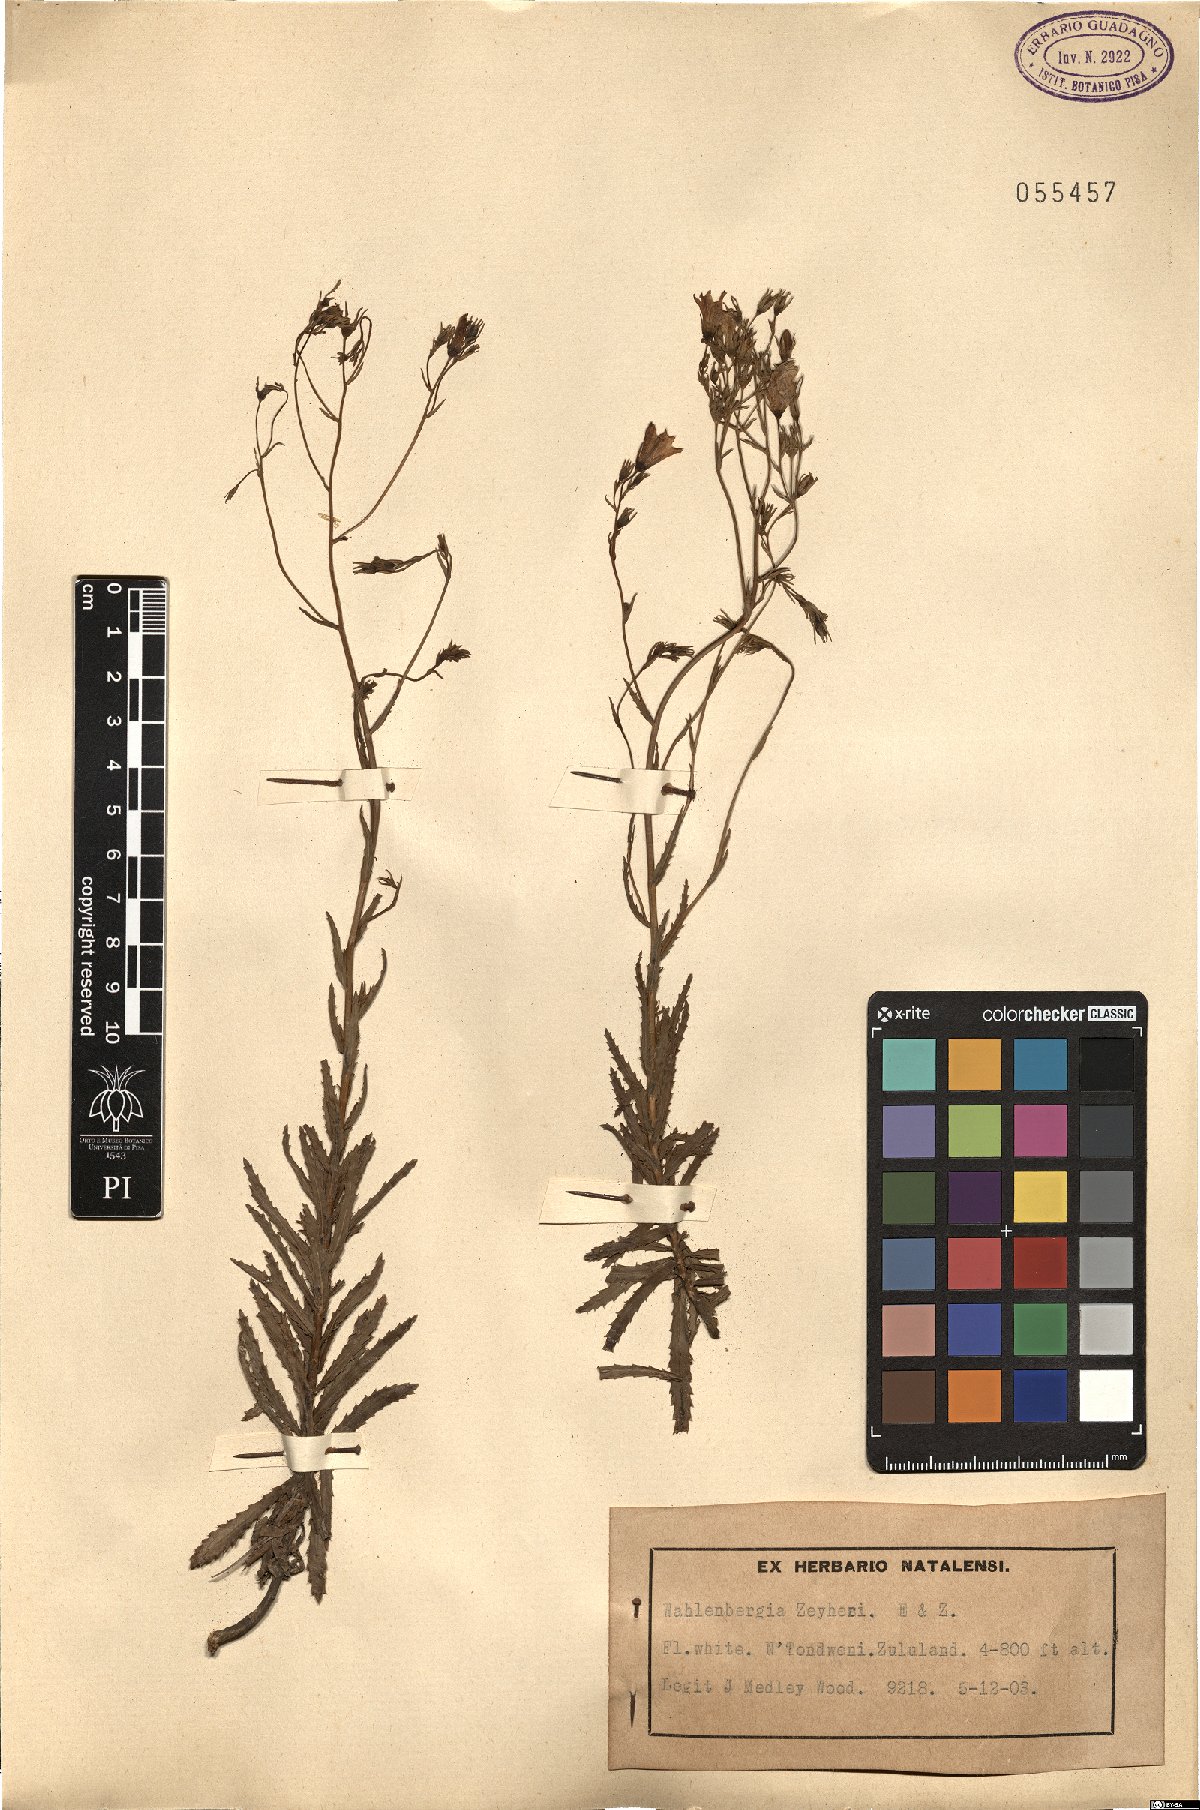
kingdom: Plantae
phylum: Tracheophyta
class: Magnoliopsida
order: Asterales
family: Campanulaceae
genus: Wahlenbergia
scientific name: Wahlenbergia krebsii
